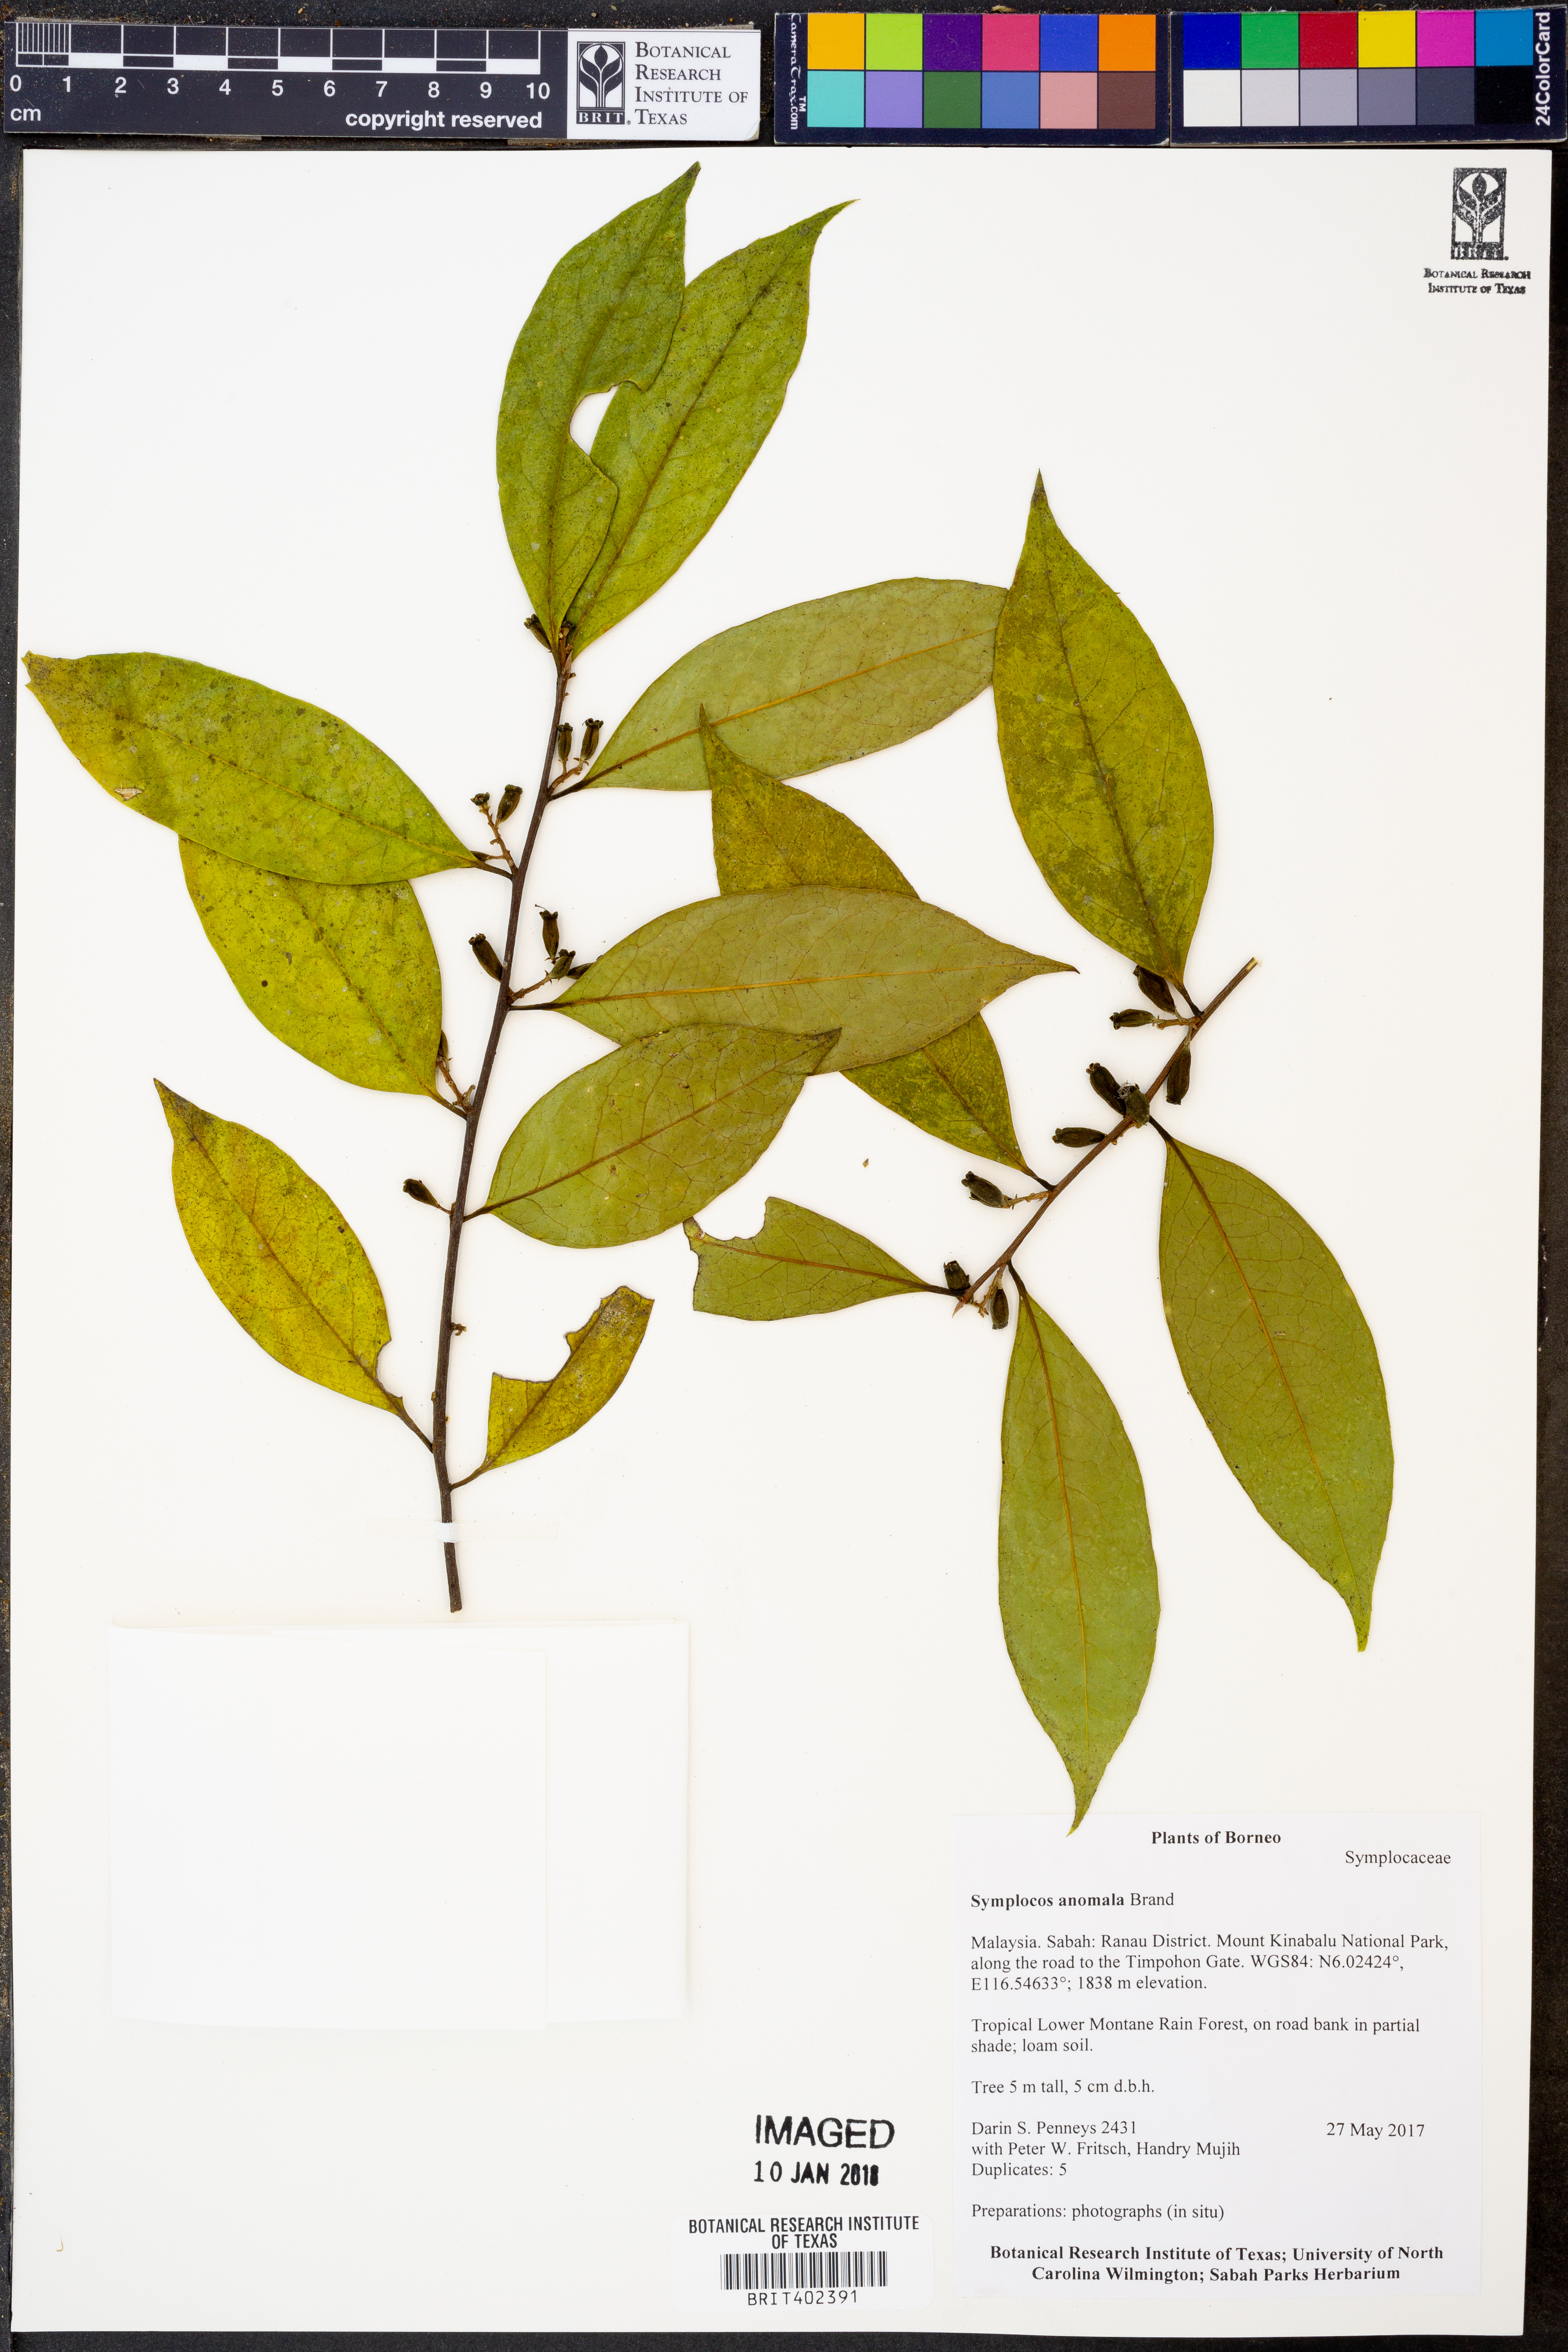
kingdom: Plantae
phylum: Tracheophyta
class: Magnoliopsida
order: Ericales
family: Symplocaceae
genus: Symplocos
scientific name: Symplocos anomala
